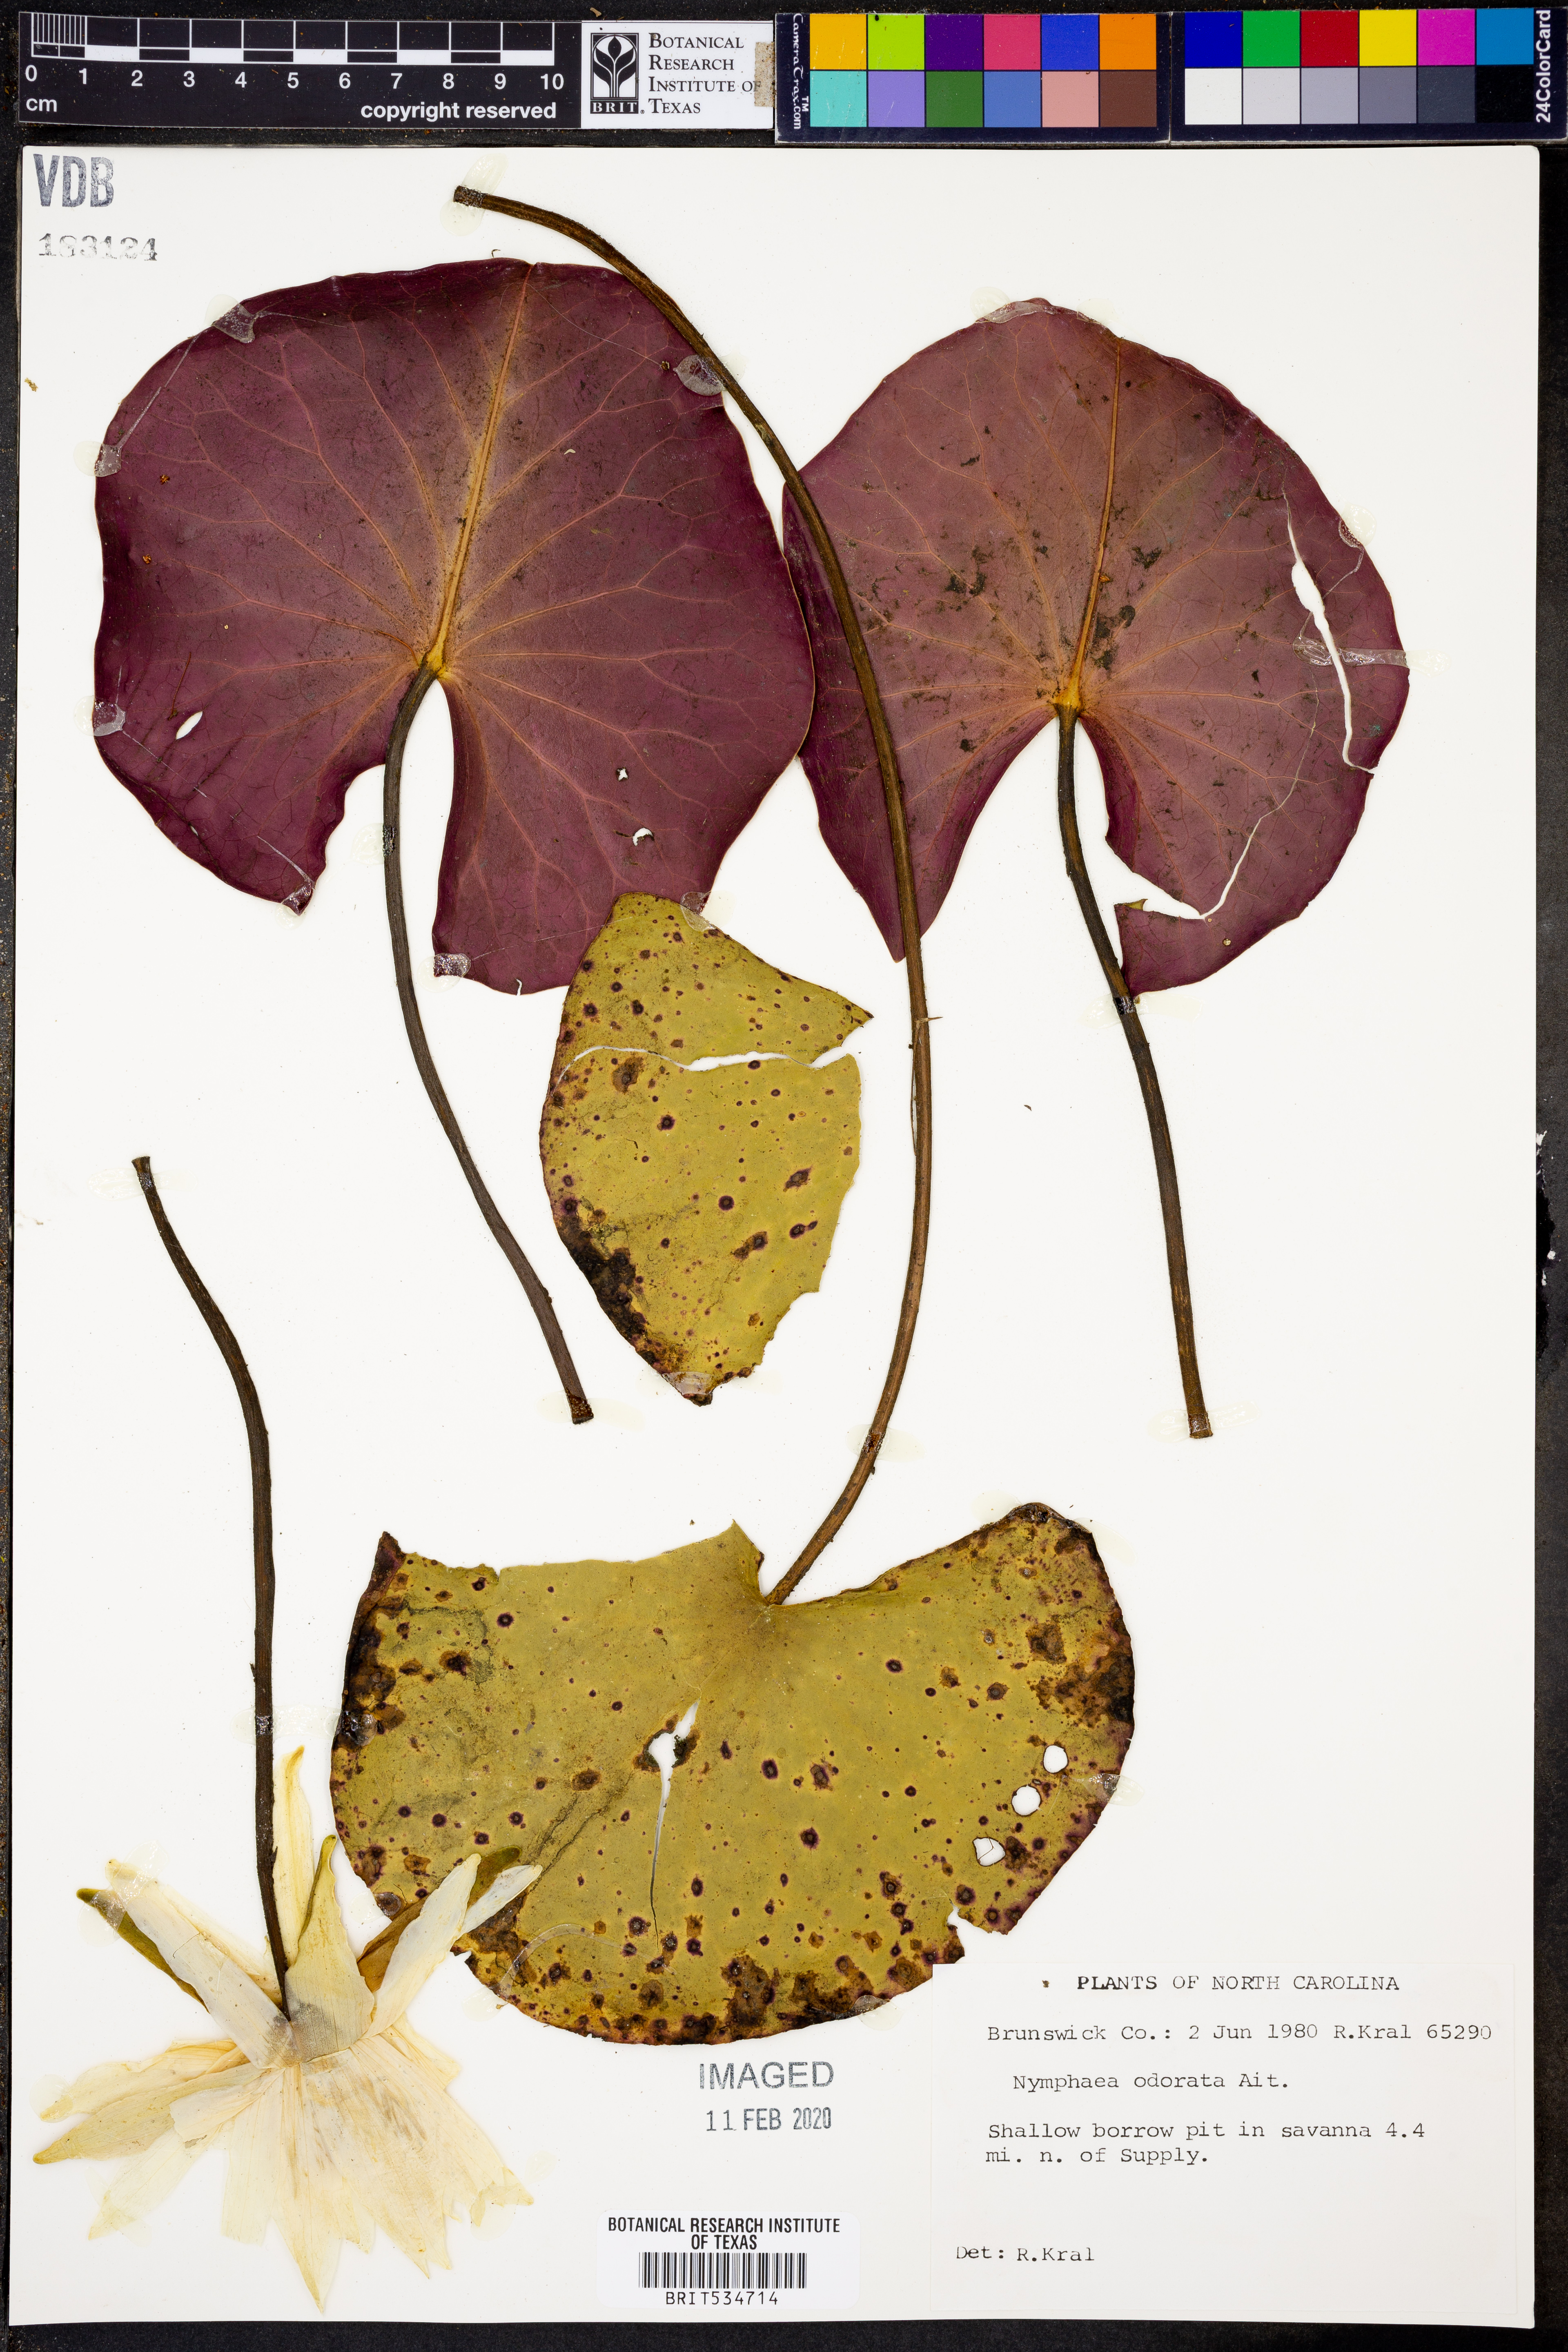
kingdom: Plantae
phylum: Tracheophyta
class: Magnoliopsida
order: Nymphaeales
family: Nymphaeaceae
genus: Nymphaea
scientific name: Nymphaea odorata
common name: Fragrant water-lily
